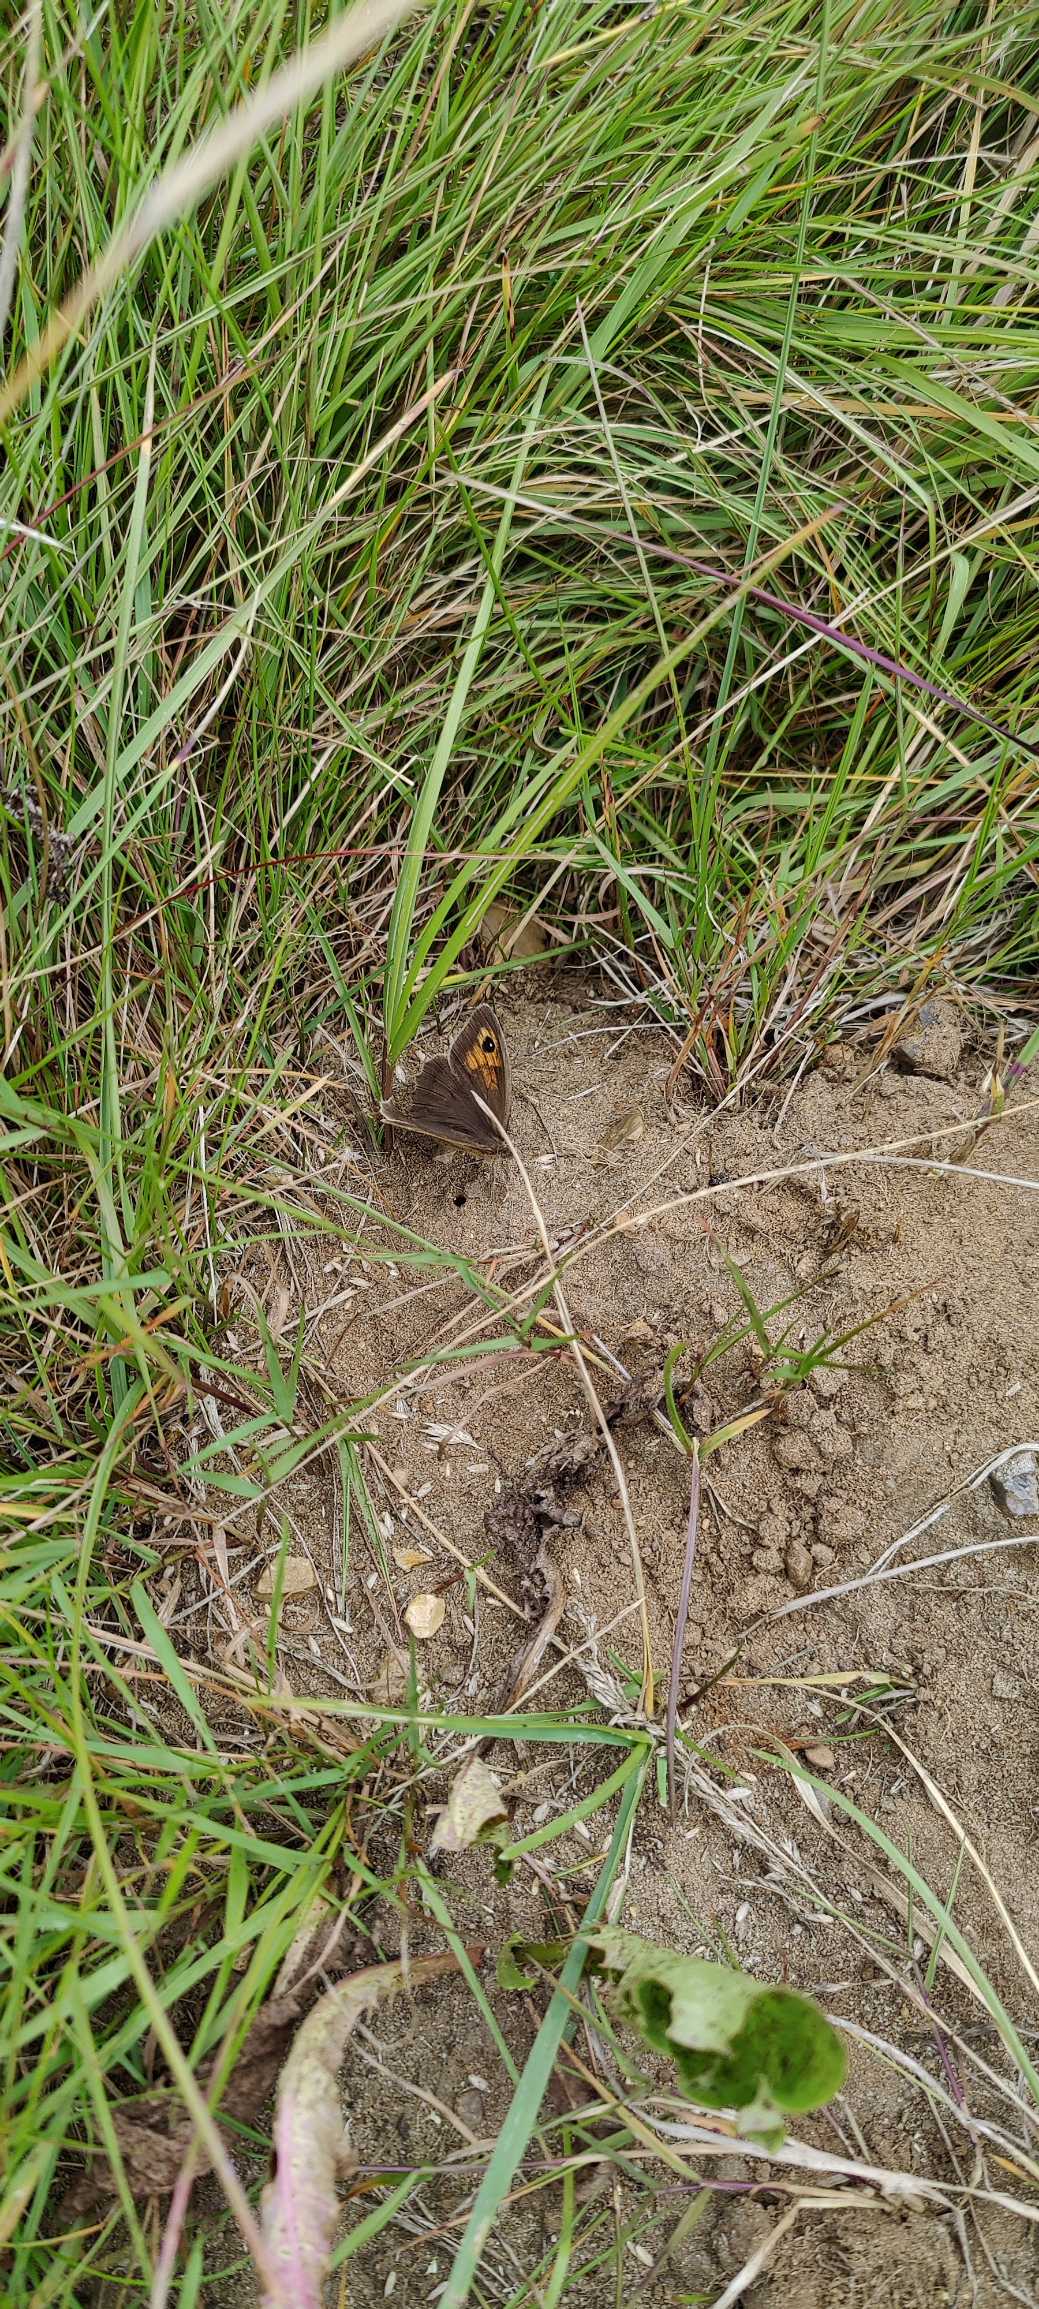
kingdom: Animalia
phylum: Arthropoda
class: Insecta
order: Lepidoptera
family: Nymphalidae
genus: Maniola
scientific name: Maniola jurtina
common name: Græsrandøje
